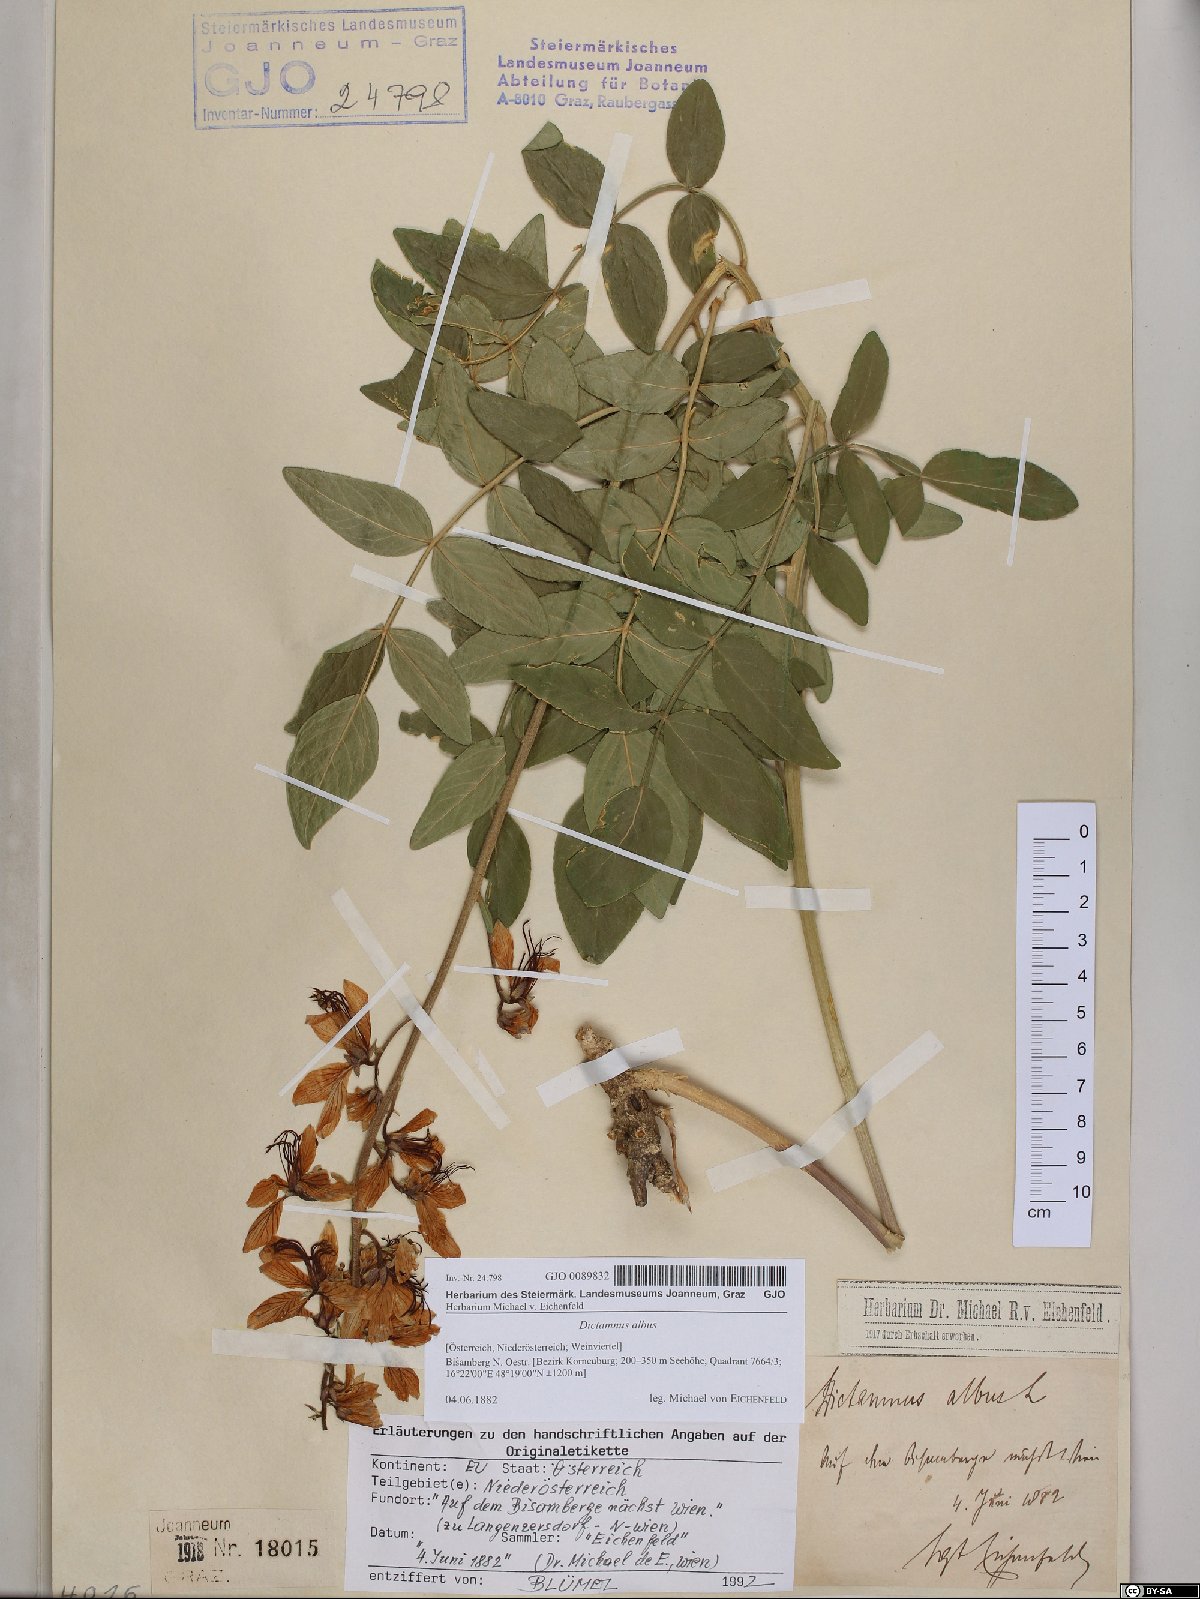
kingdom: Plantae
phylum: Tracheophyta
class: Magnoliopsida
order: Sapindales
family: Rutaceae
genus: Dictamnus
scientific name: Dictamnus albus
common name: Gasplant
